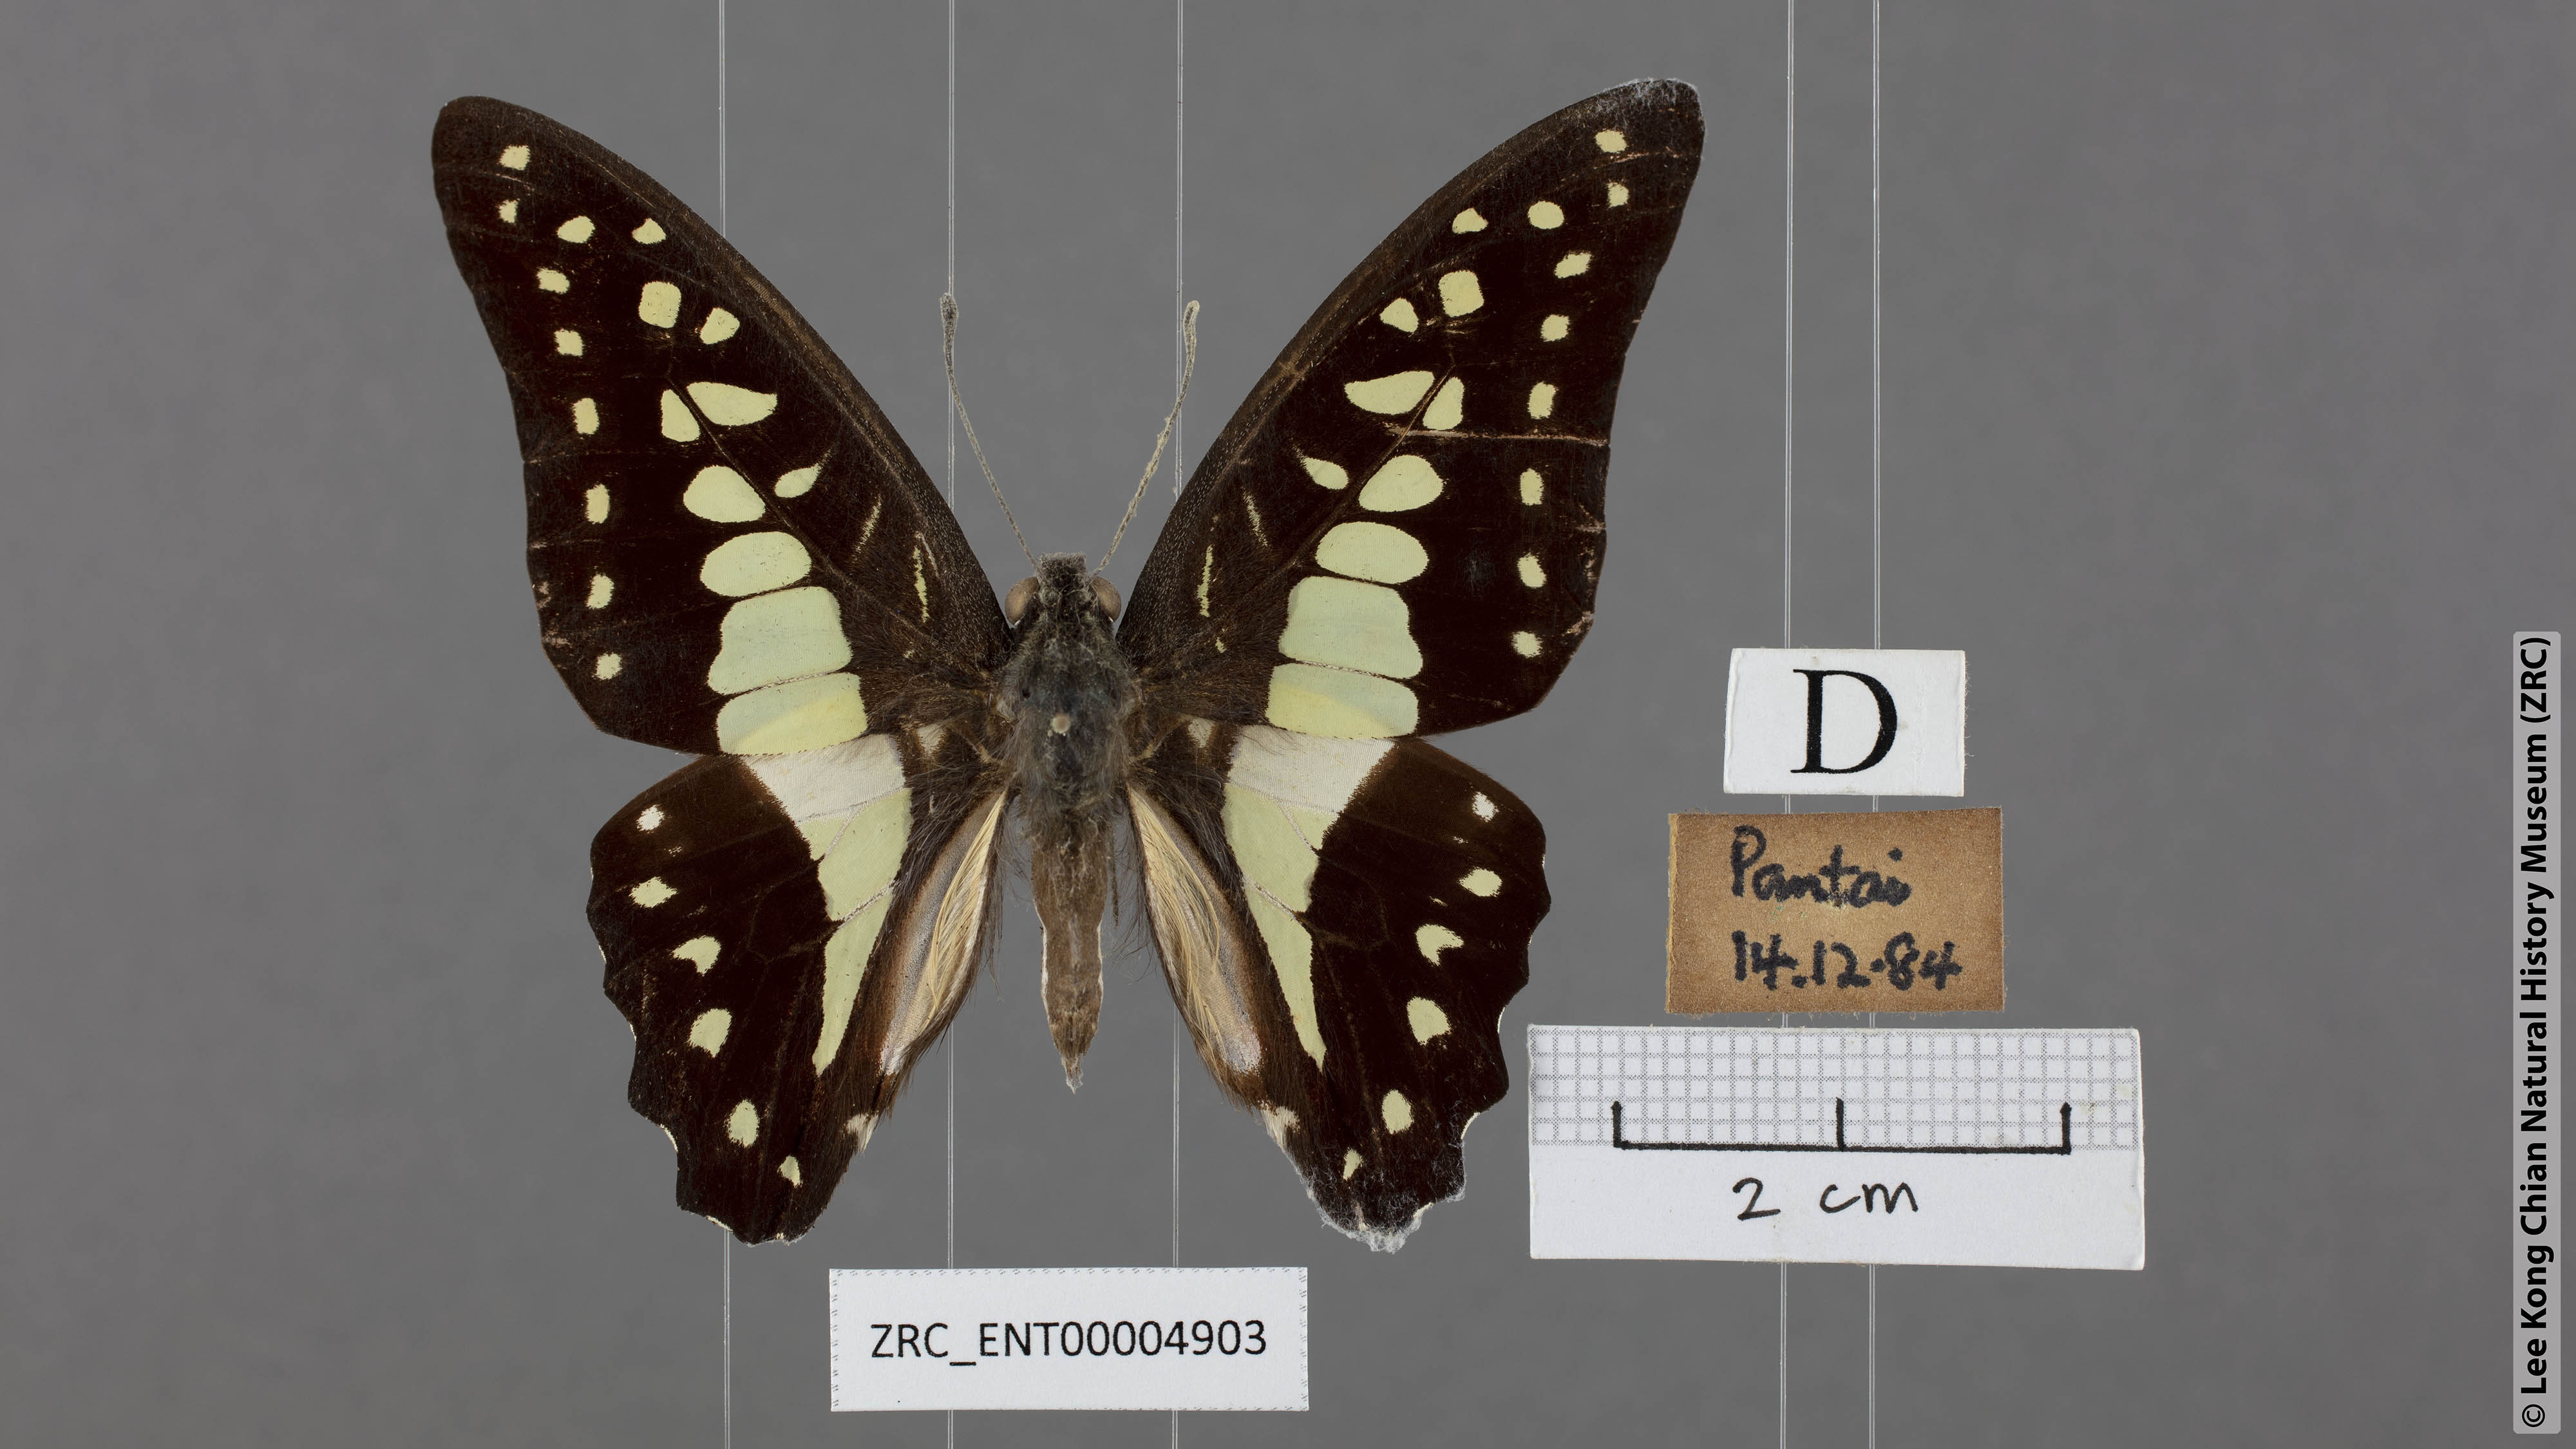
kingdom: Animalia
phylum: Arthropoda
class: Insecta
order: Lepidoptera
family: Papilionidae
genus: Graphium
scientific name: Graphium evemon
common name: Lesser jay
